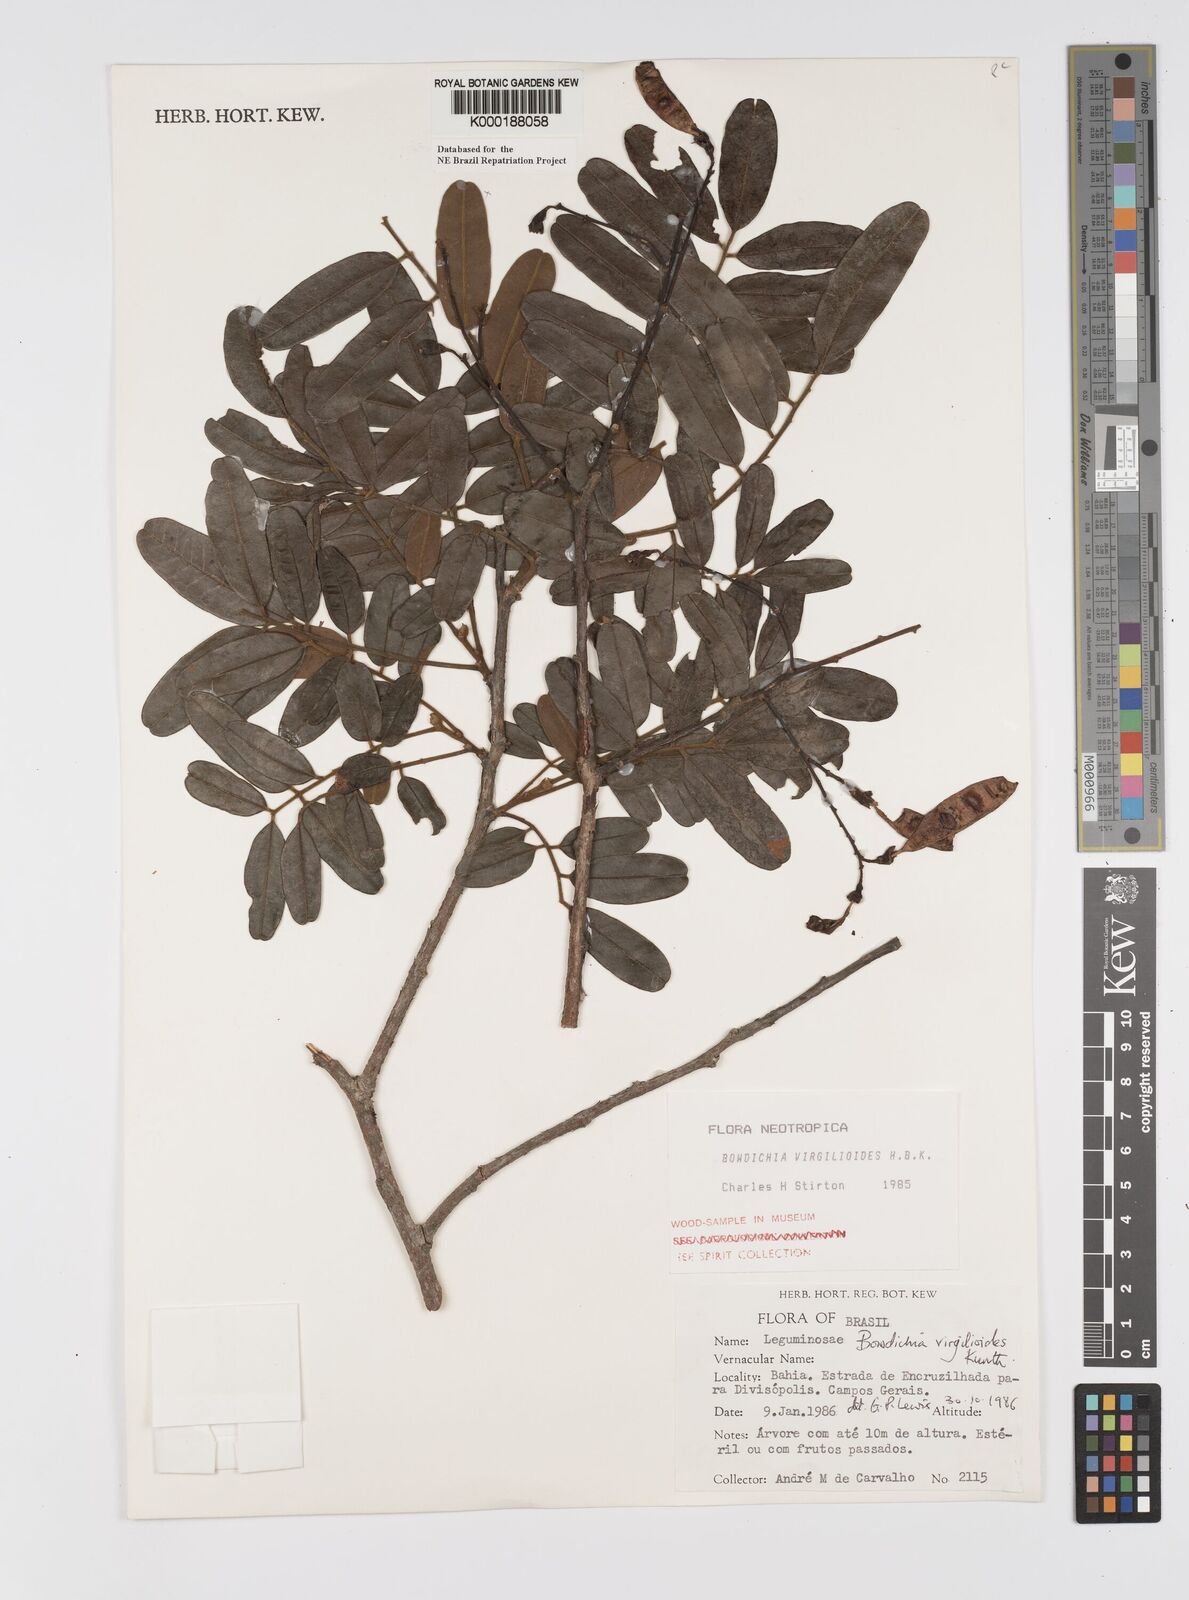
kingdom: Plantae
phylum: Tracheophyta
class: Magnoliopsida
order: Fabales
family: Fabaceae
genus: Bowdichia
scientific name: Bowdichia virgilioides
